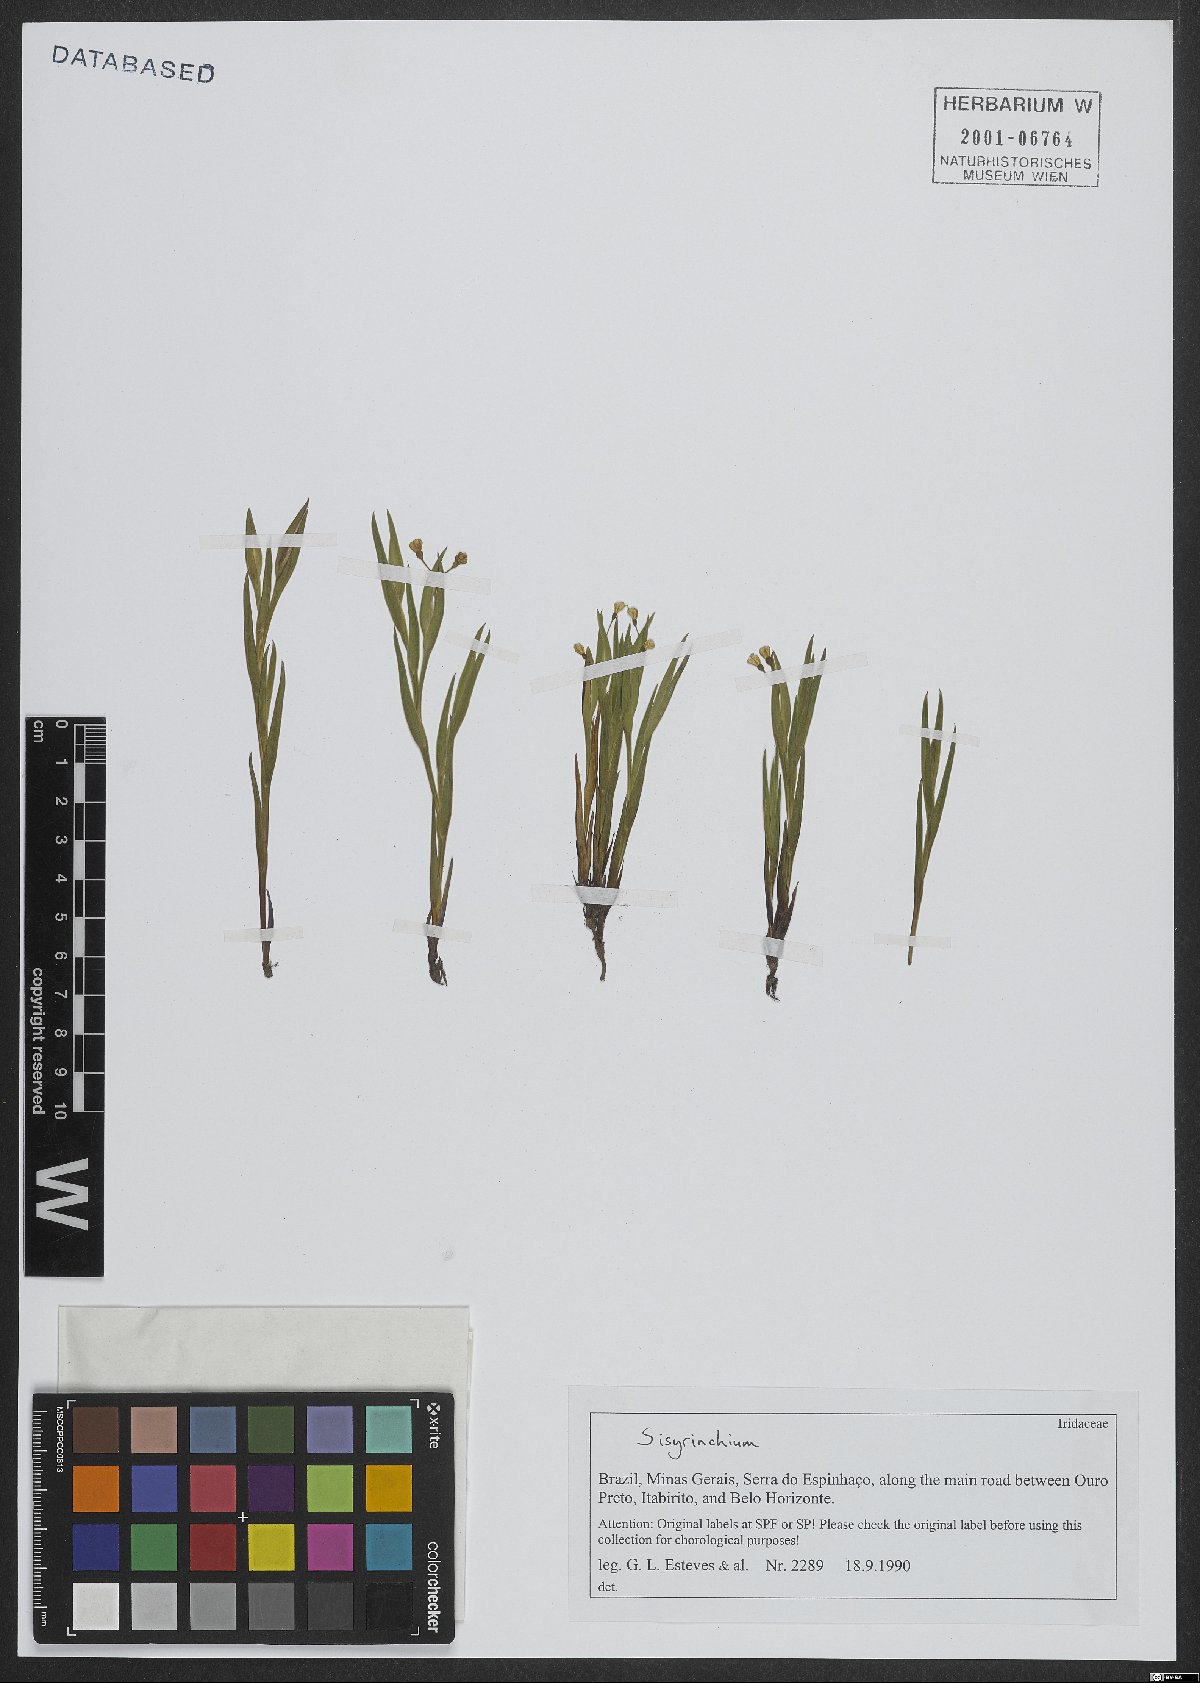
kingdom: Plantae
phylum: Tracheophyta
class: Liliopsida
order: Asparagales
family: Iridaceae
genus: Sisyrinchium
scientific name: Sisyrinchium
